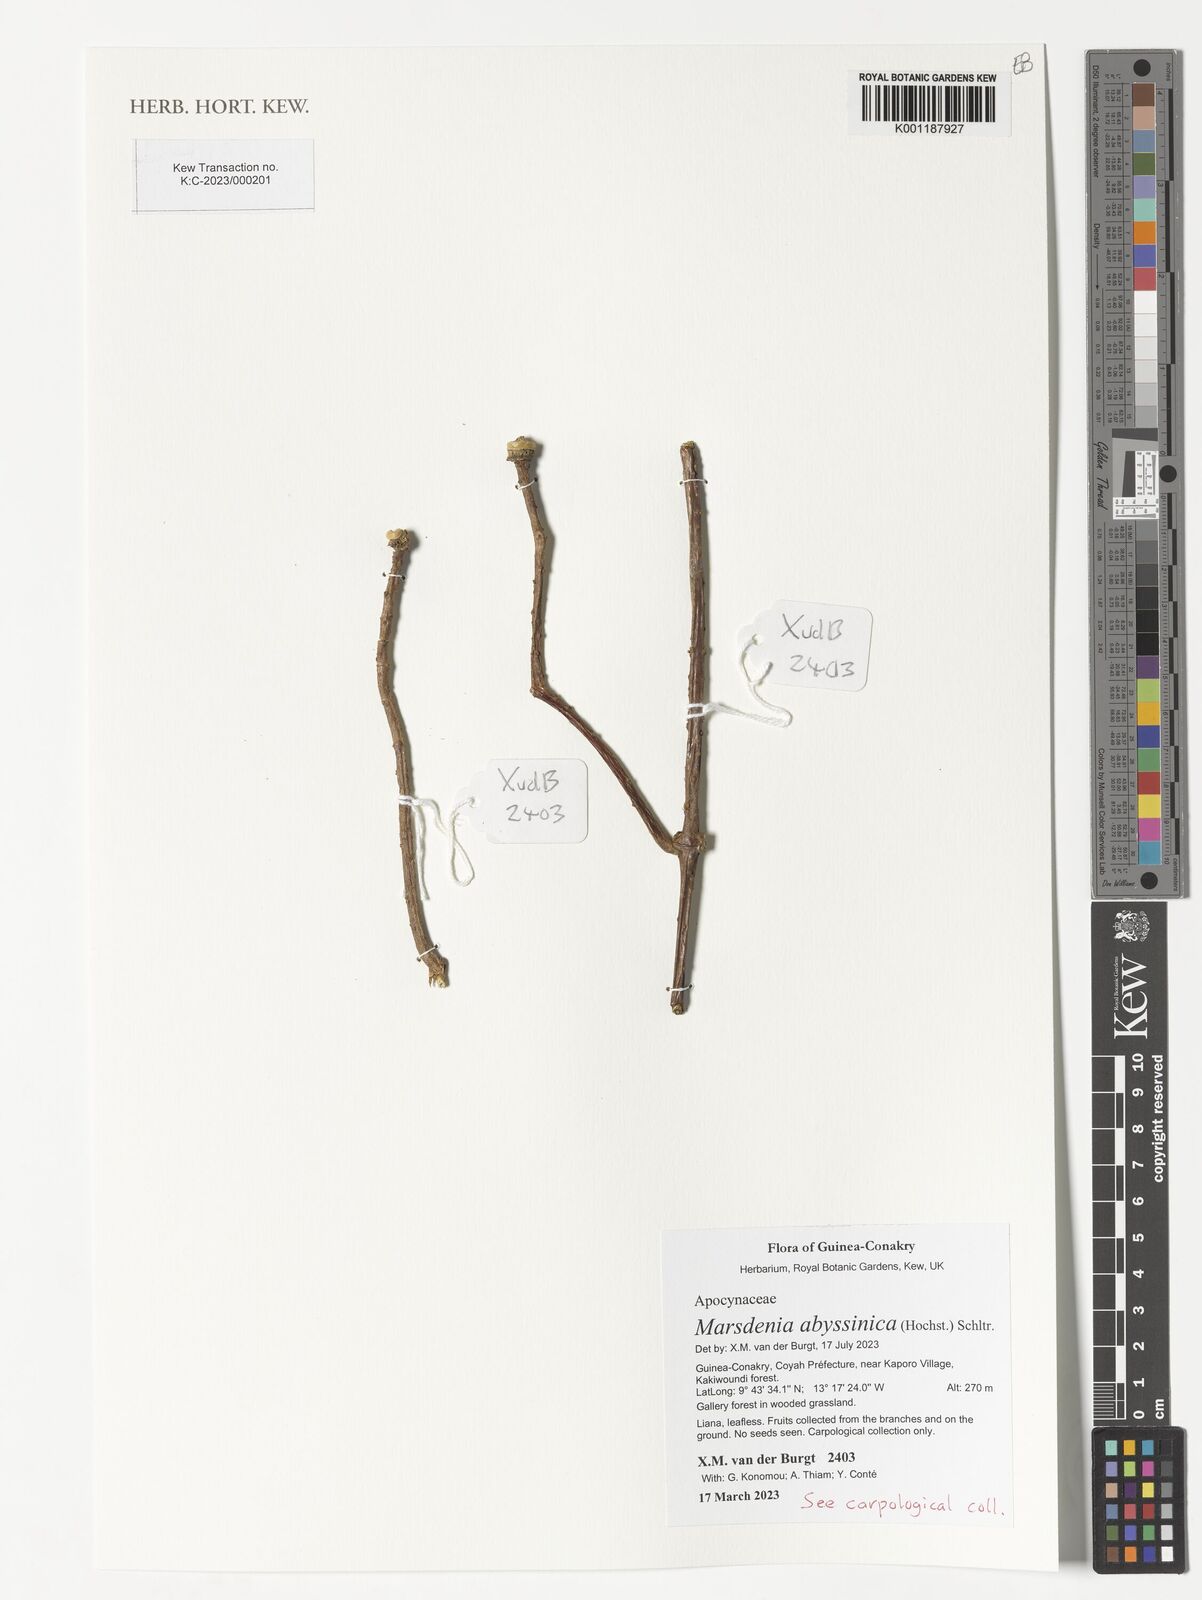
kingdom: Plantae
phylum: Tracheophyta
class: Magnoliopsida
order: Gentianales
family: Apocynaceae
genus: Stephanotis
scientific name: Stephanotis abyssinica
